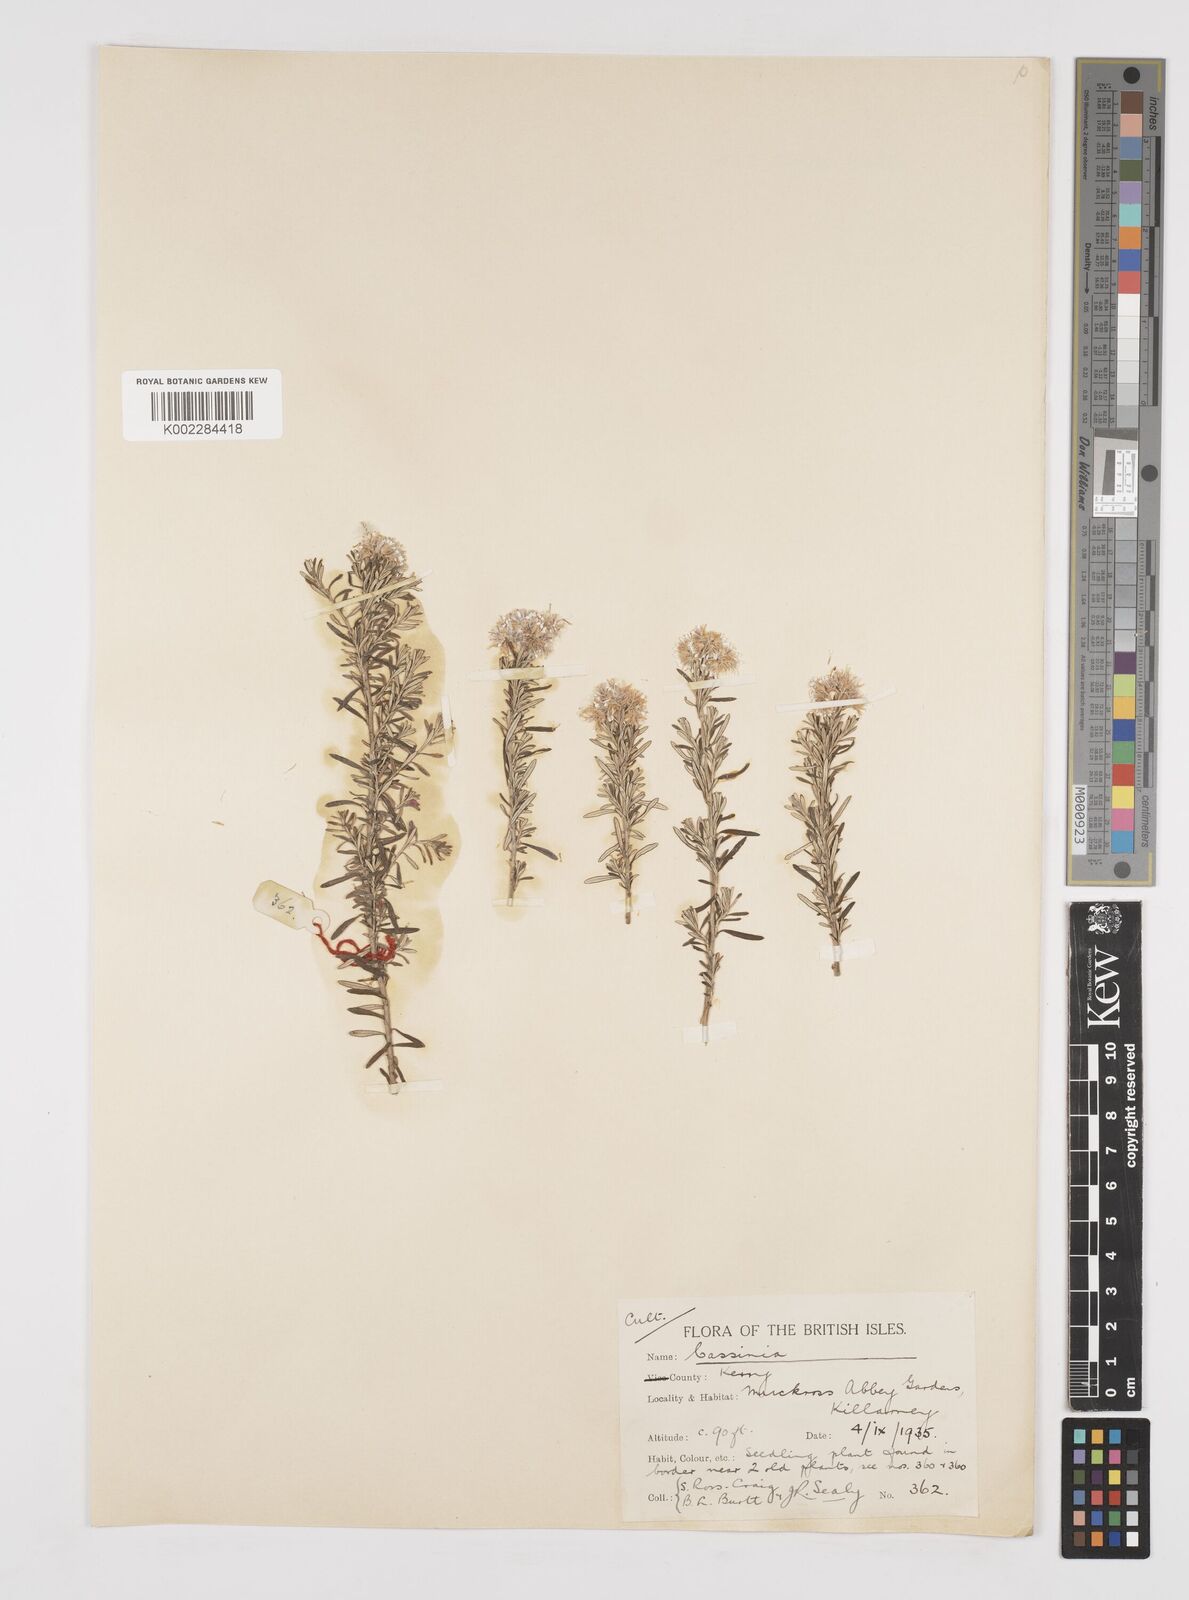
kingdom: Plantae
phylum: Tracheophyta
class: Magnoliopsida
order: Asterales
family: Asteraceae
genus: Cassinia
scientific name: Cassinia
